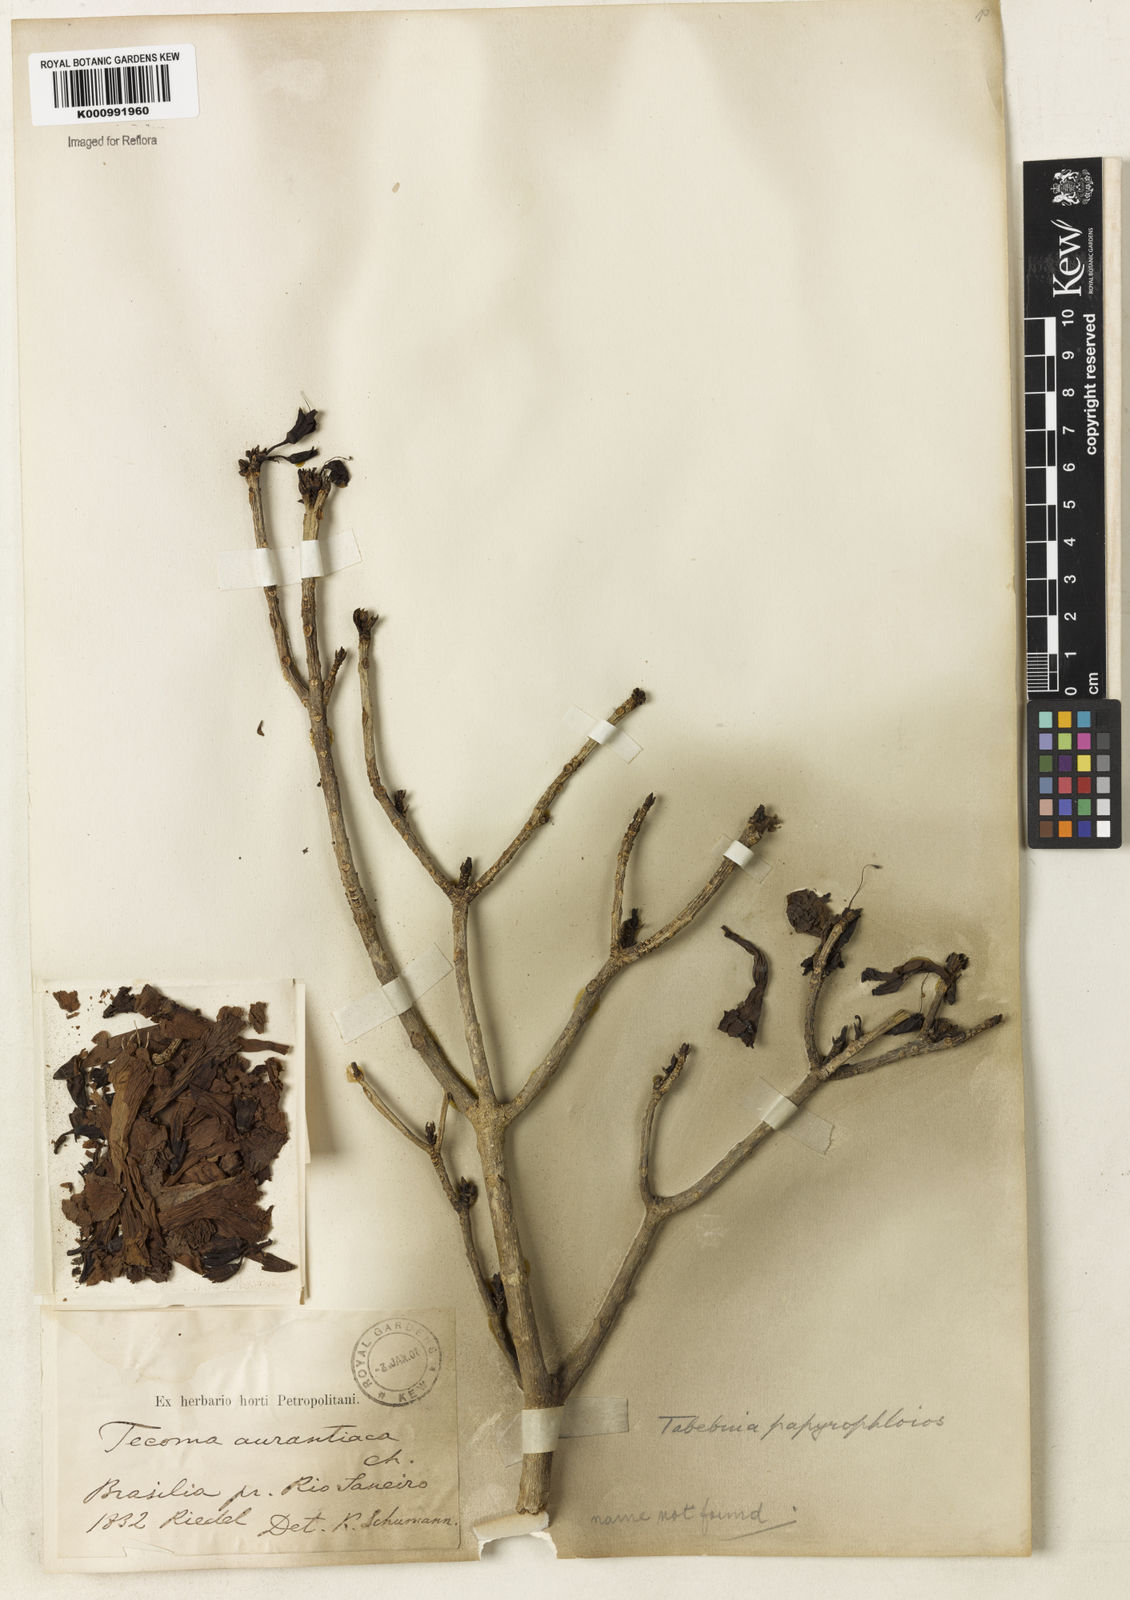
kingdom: Plantae
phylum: Tracheophyta
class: Magnoliopsida
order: Lamiales
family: Bignoniaceae
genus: Tabebuia
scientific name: Tabebuia roseoalba
